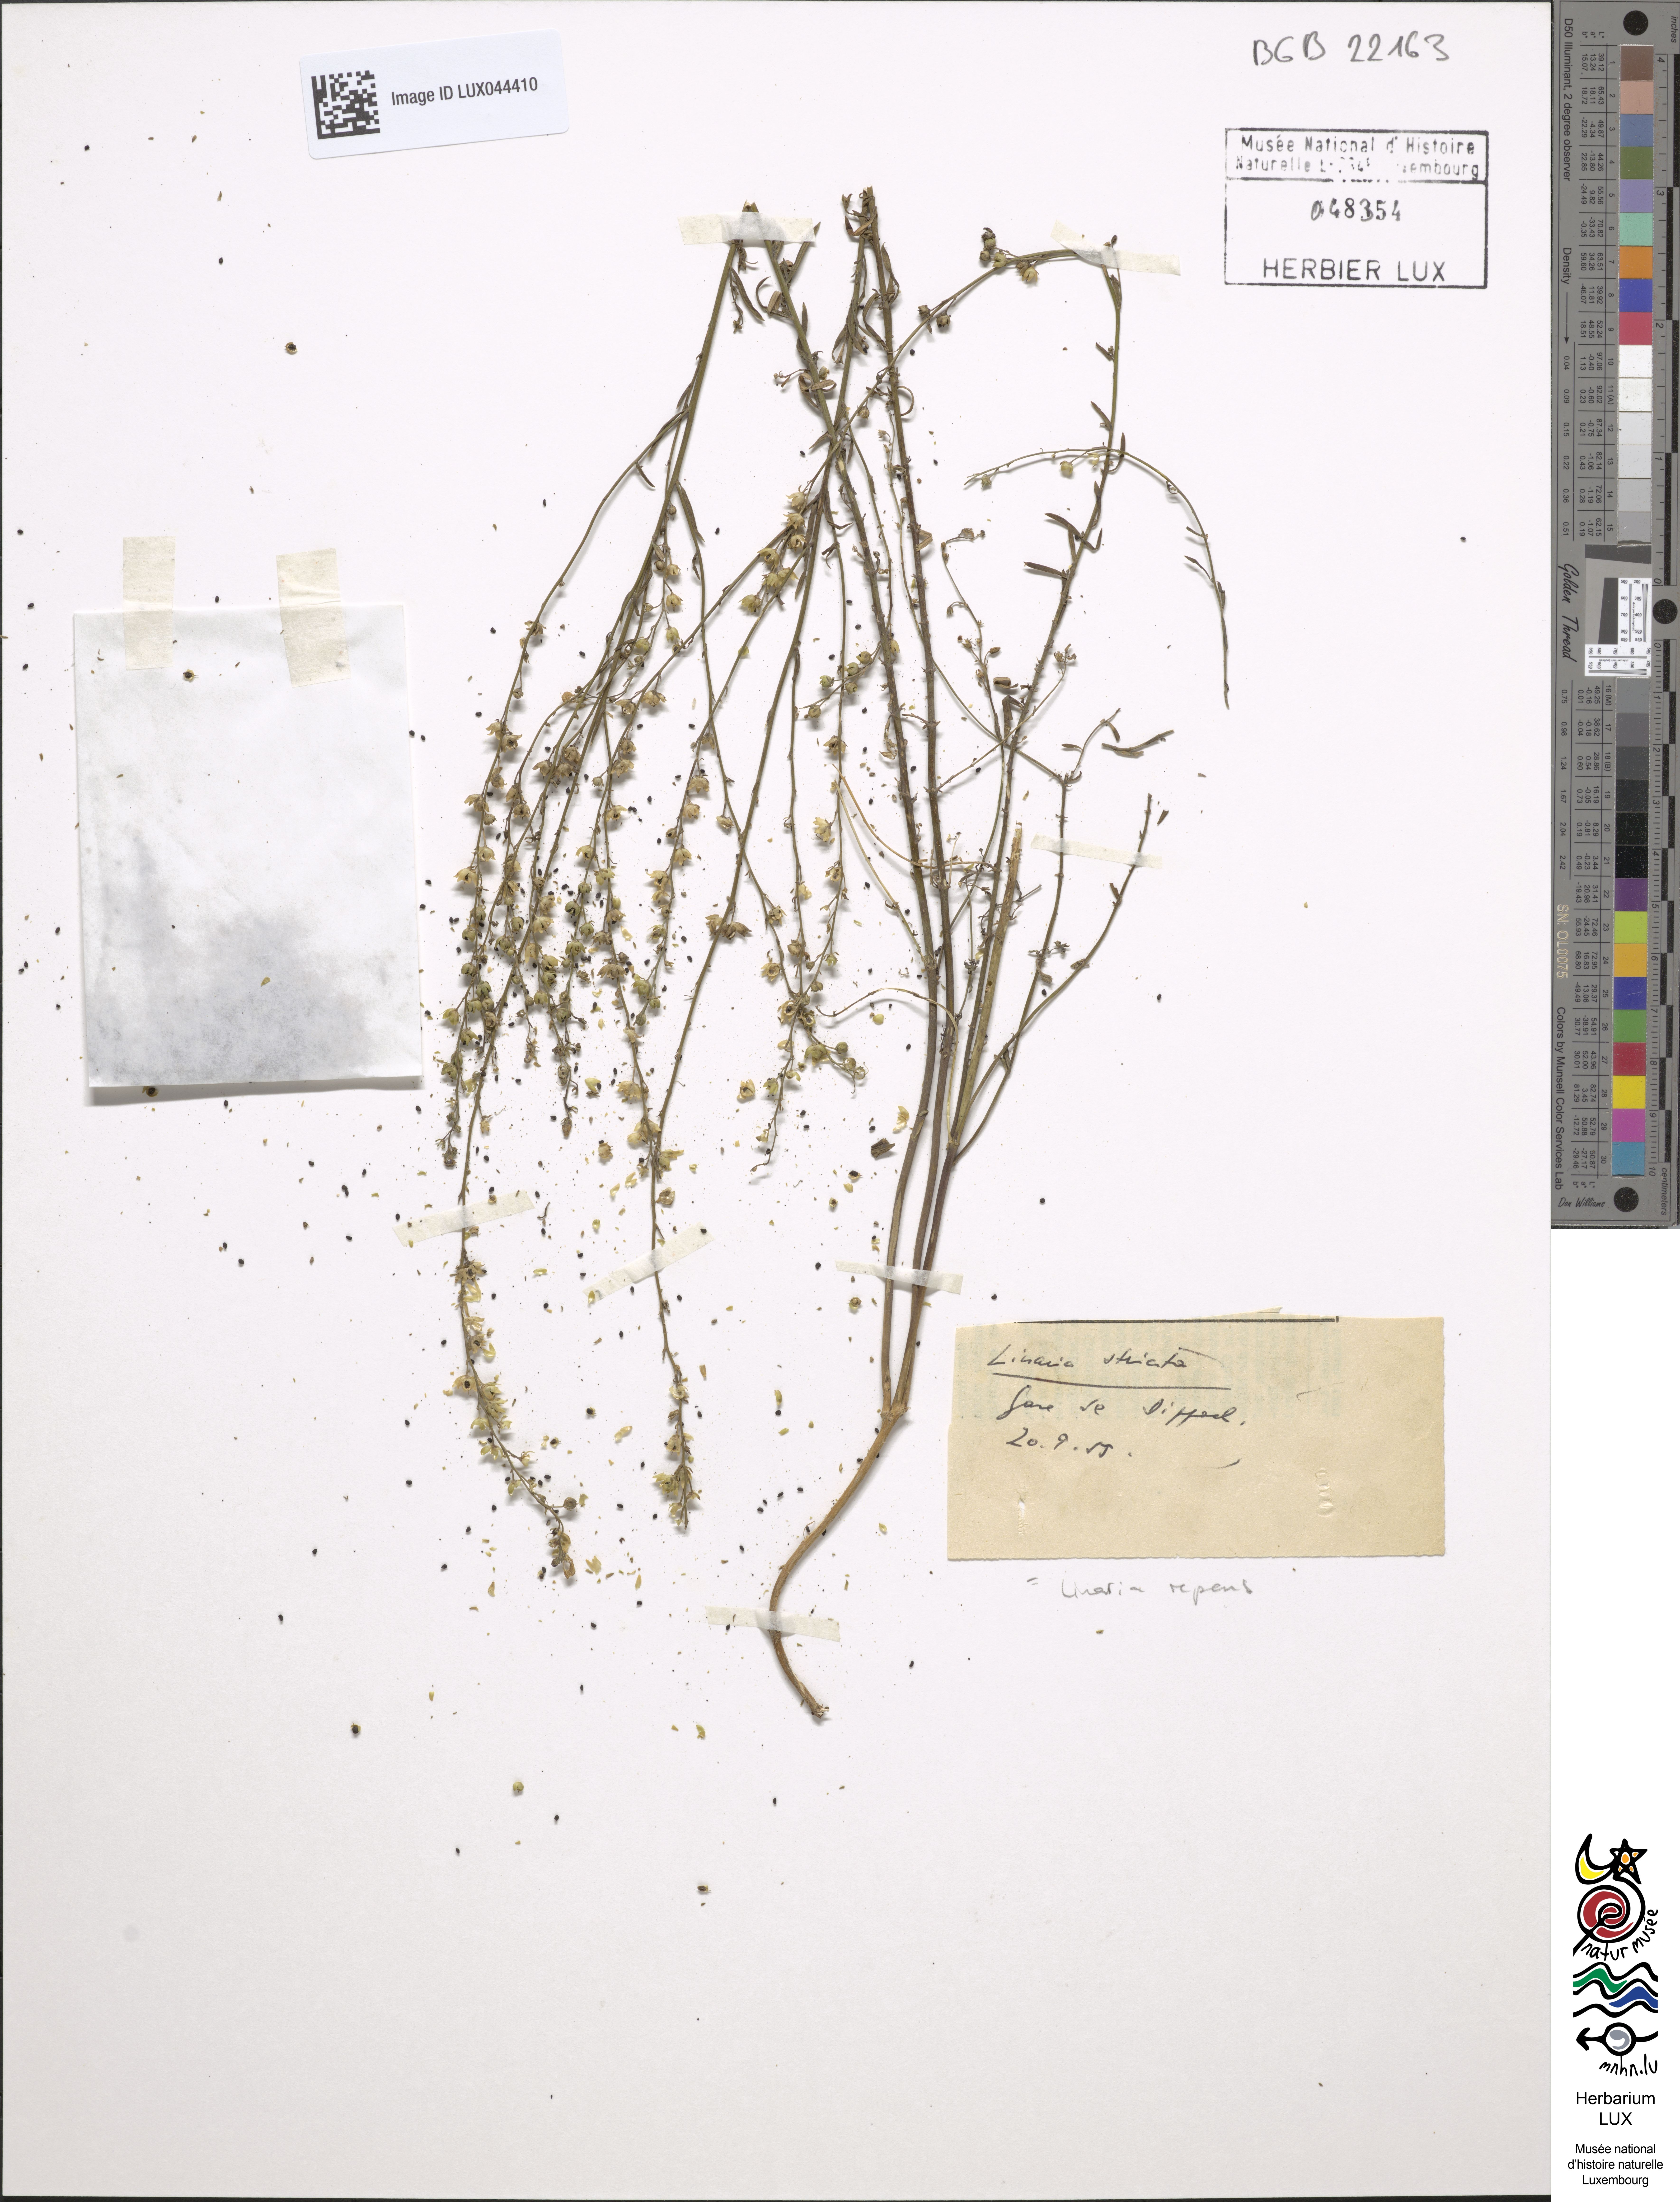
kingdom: Plantae
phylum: Tracheophyta
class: Magnoliopsida
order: Lamiales
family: Plantaginaceae
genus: Linaria
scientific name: Linaria
